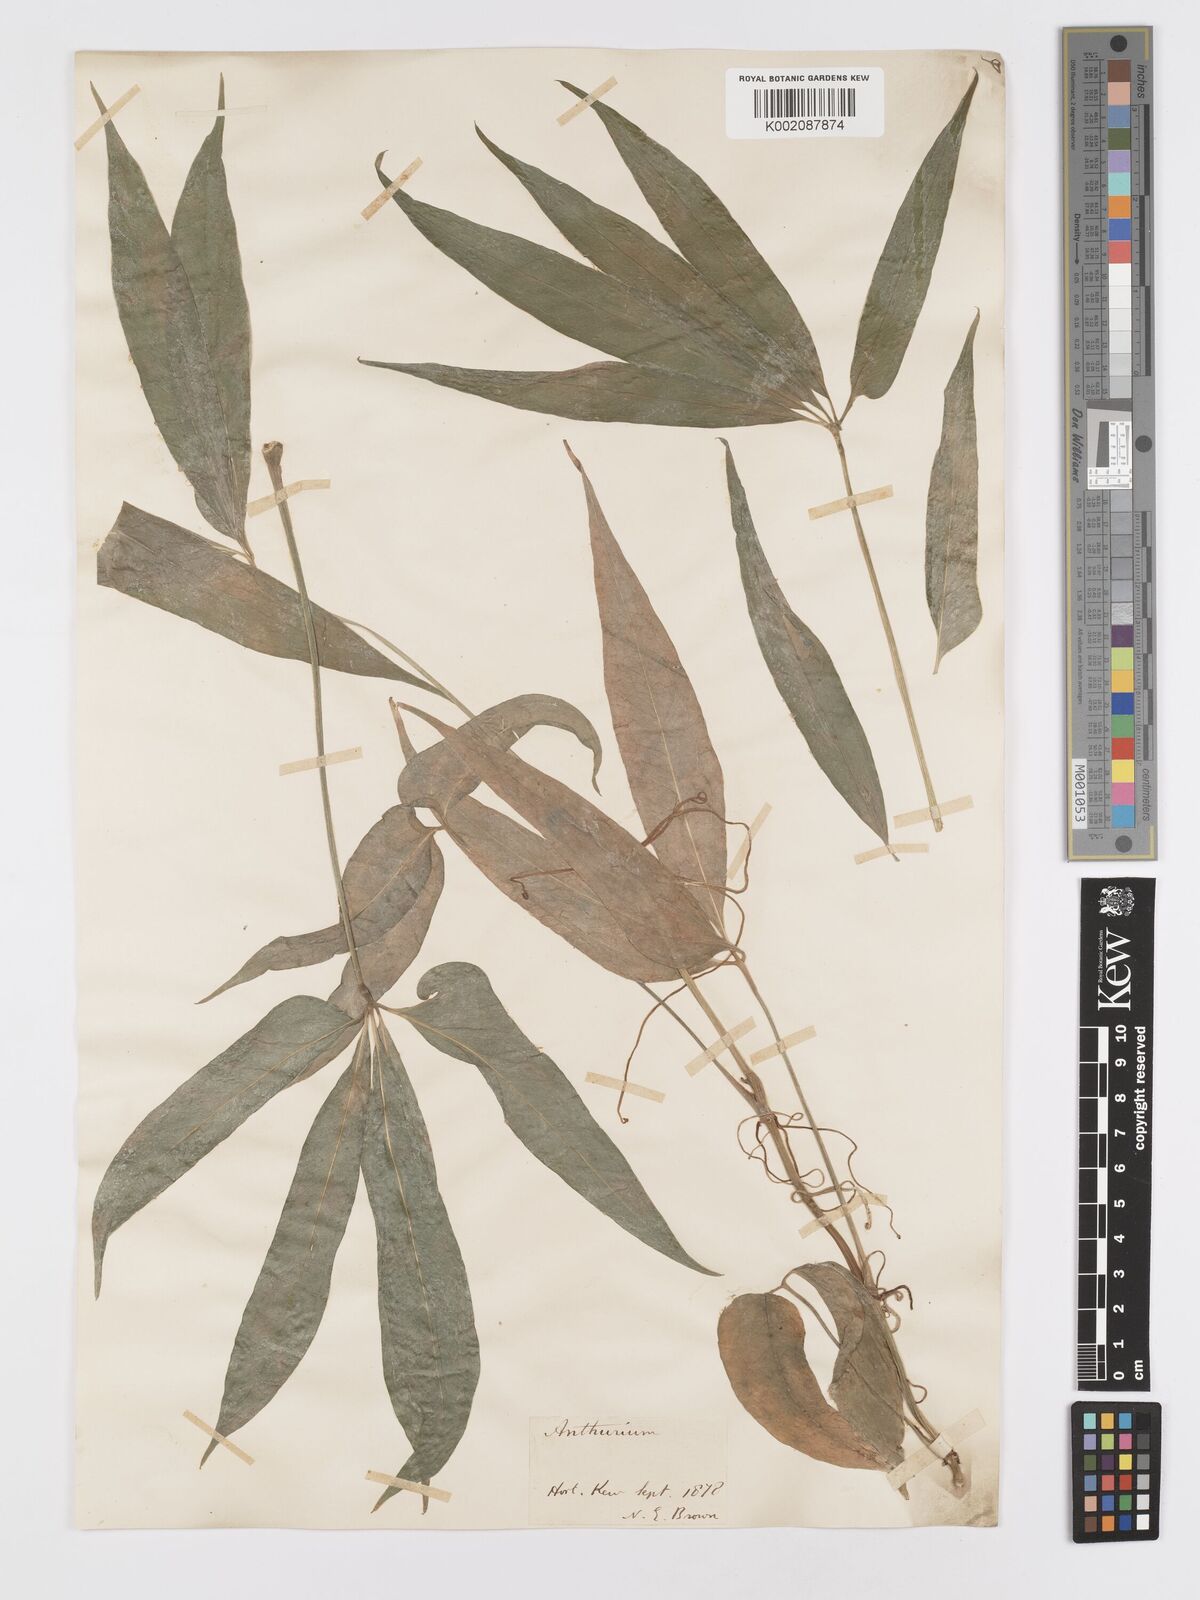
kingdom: Plantae
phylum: Tracheophyta
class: Liliopsida
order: Alismatales
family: Araceae
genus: Anthurium
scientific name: Anthurium pentaphyllum
